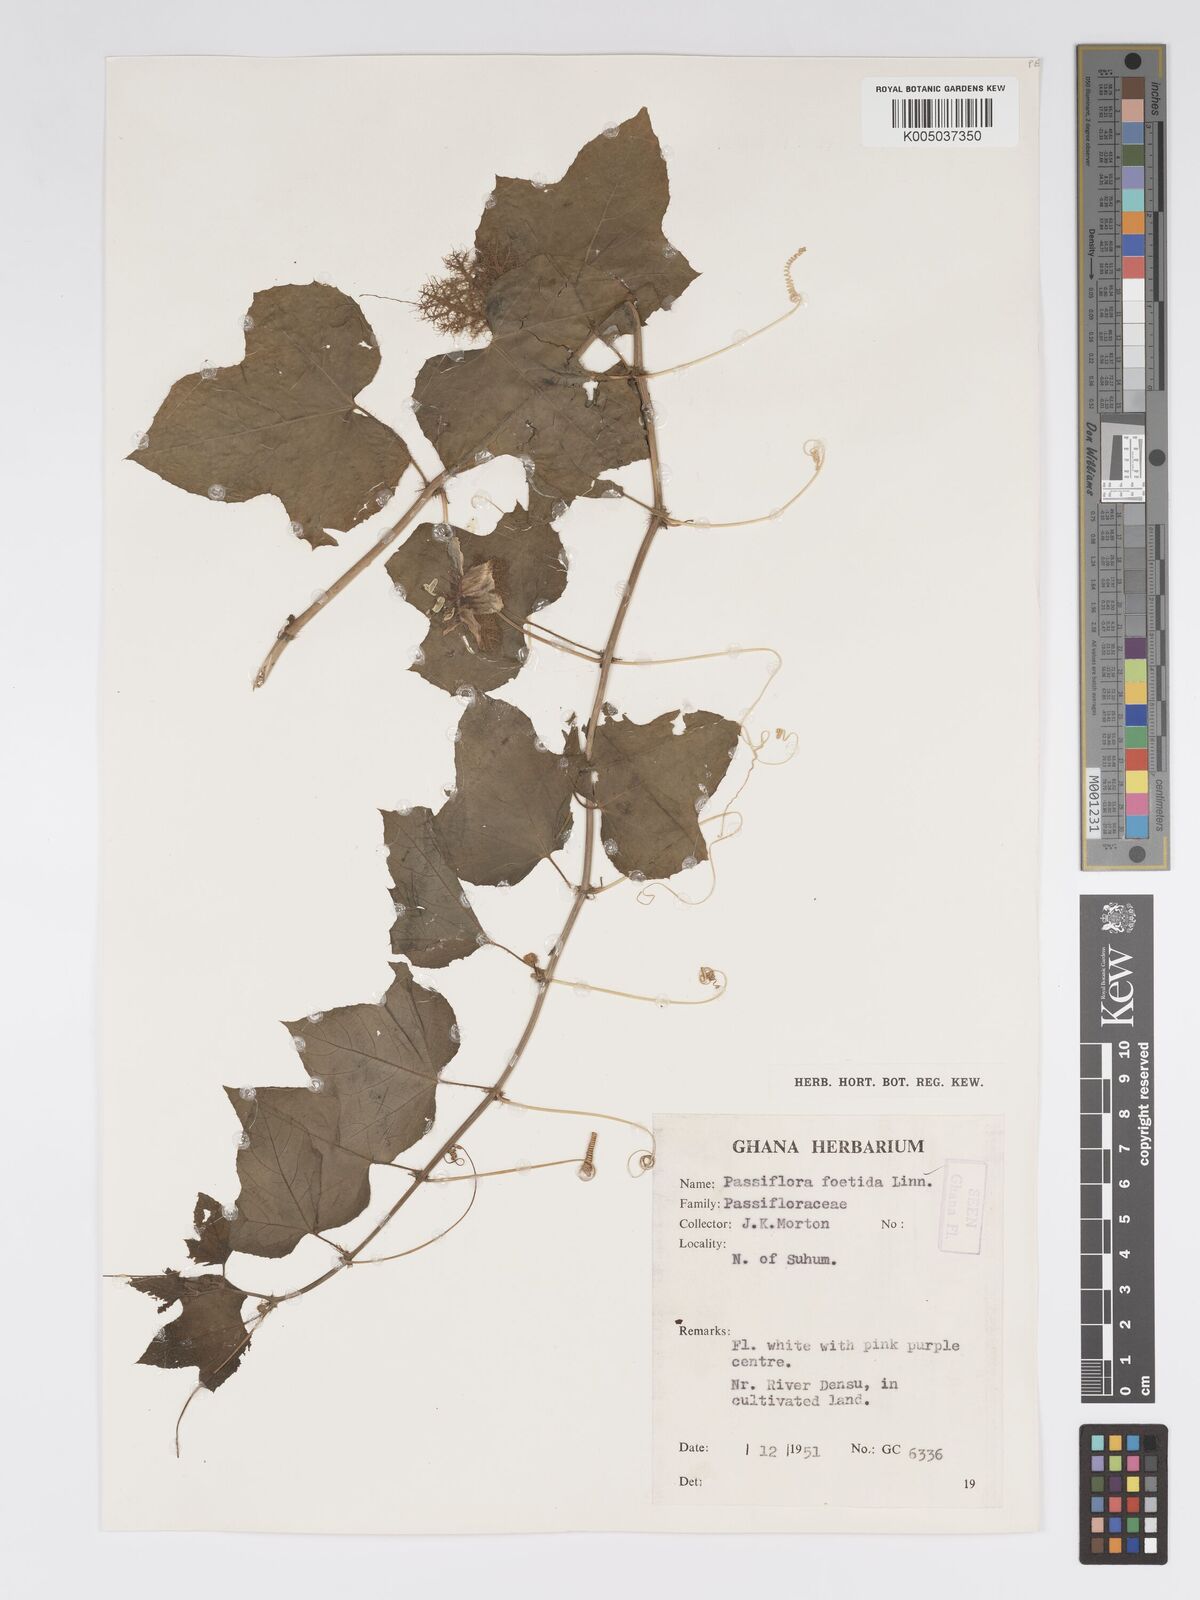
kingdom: Plantae
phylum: Tracheophyta
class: Magnoliopsida
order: Malpighiales
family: Passifloraceae
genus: Passiflora
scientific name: Passiflora foetida
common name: Fetid passionflower
